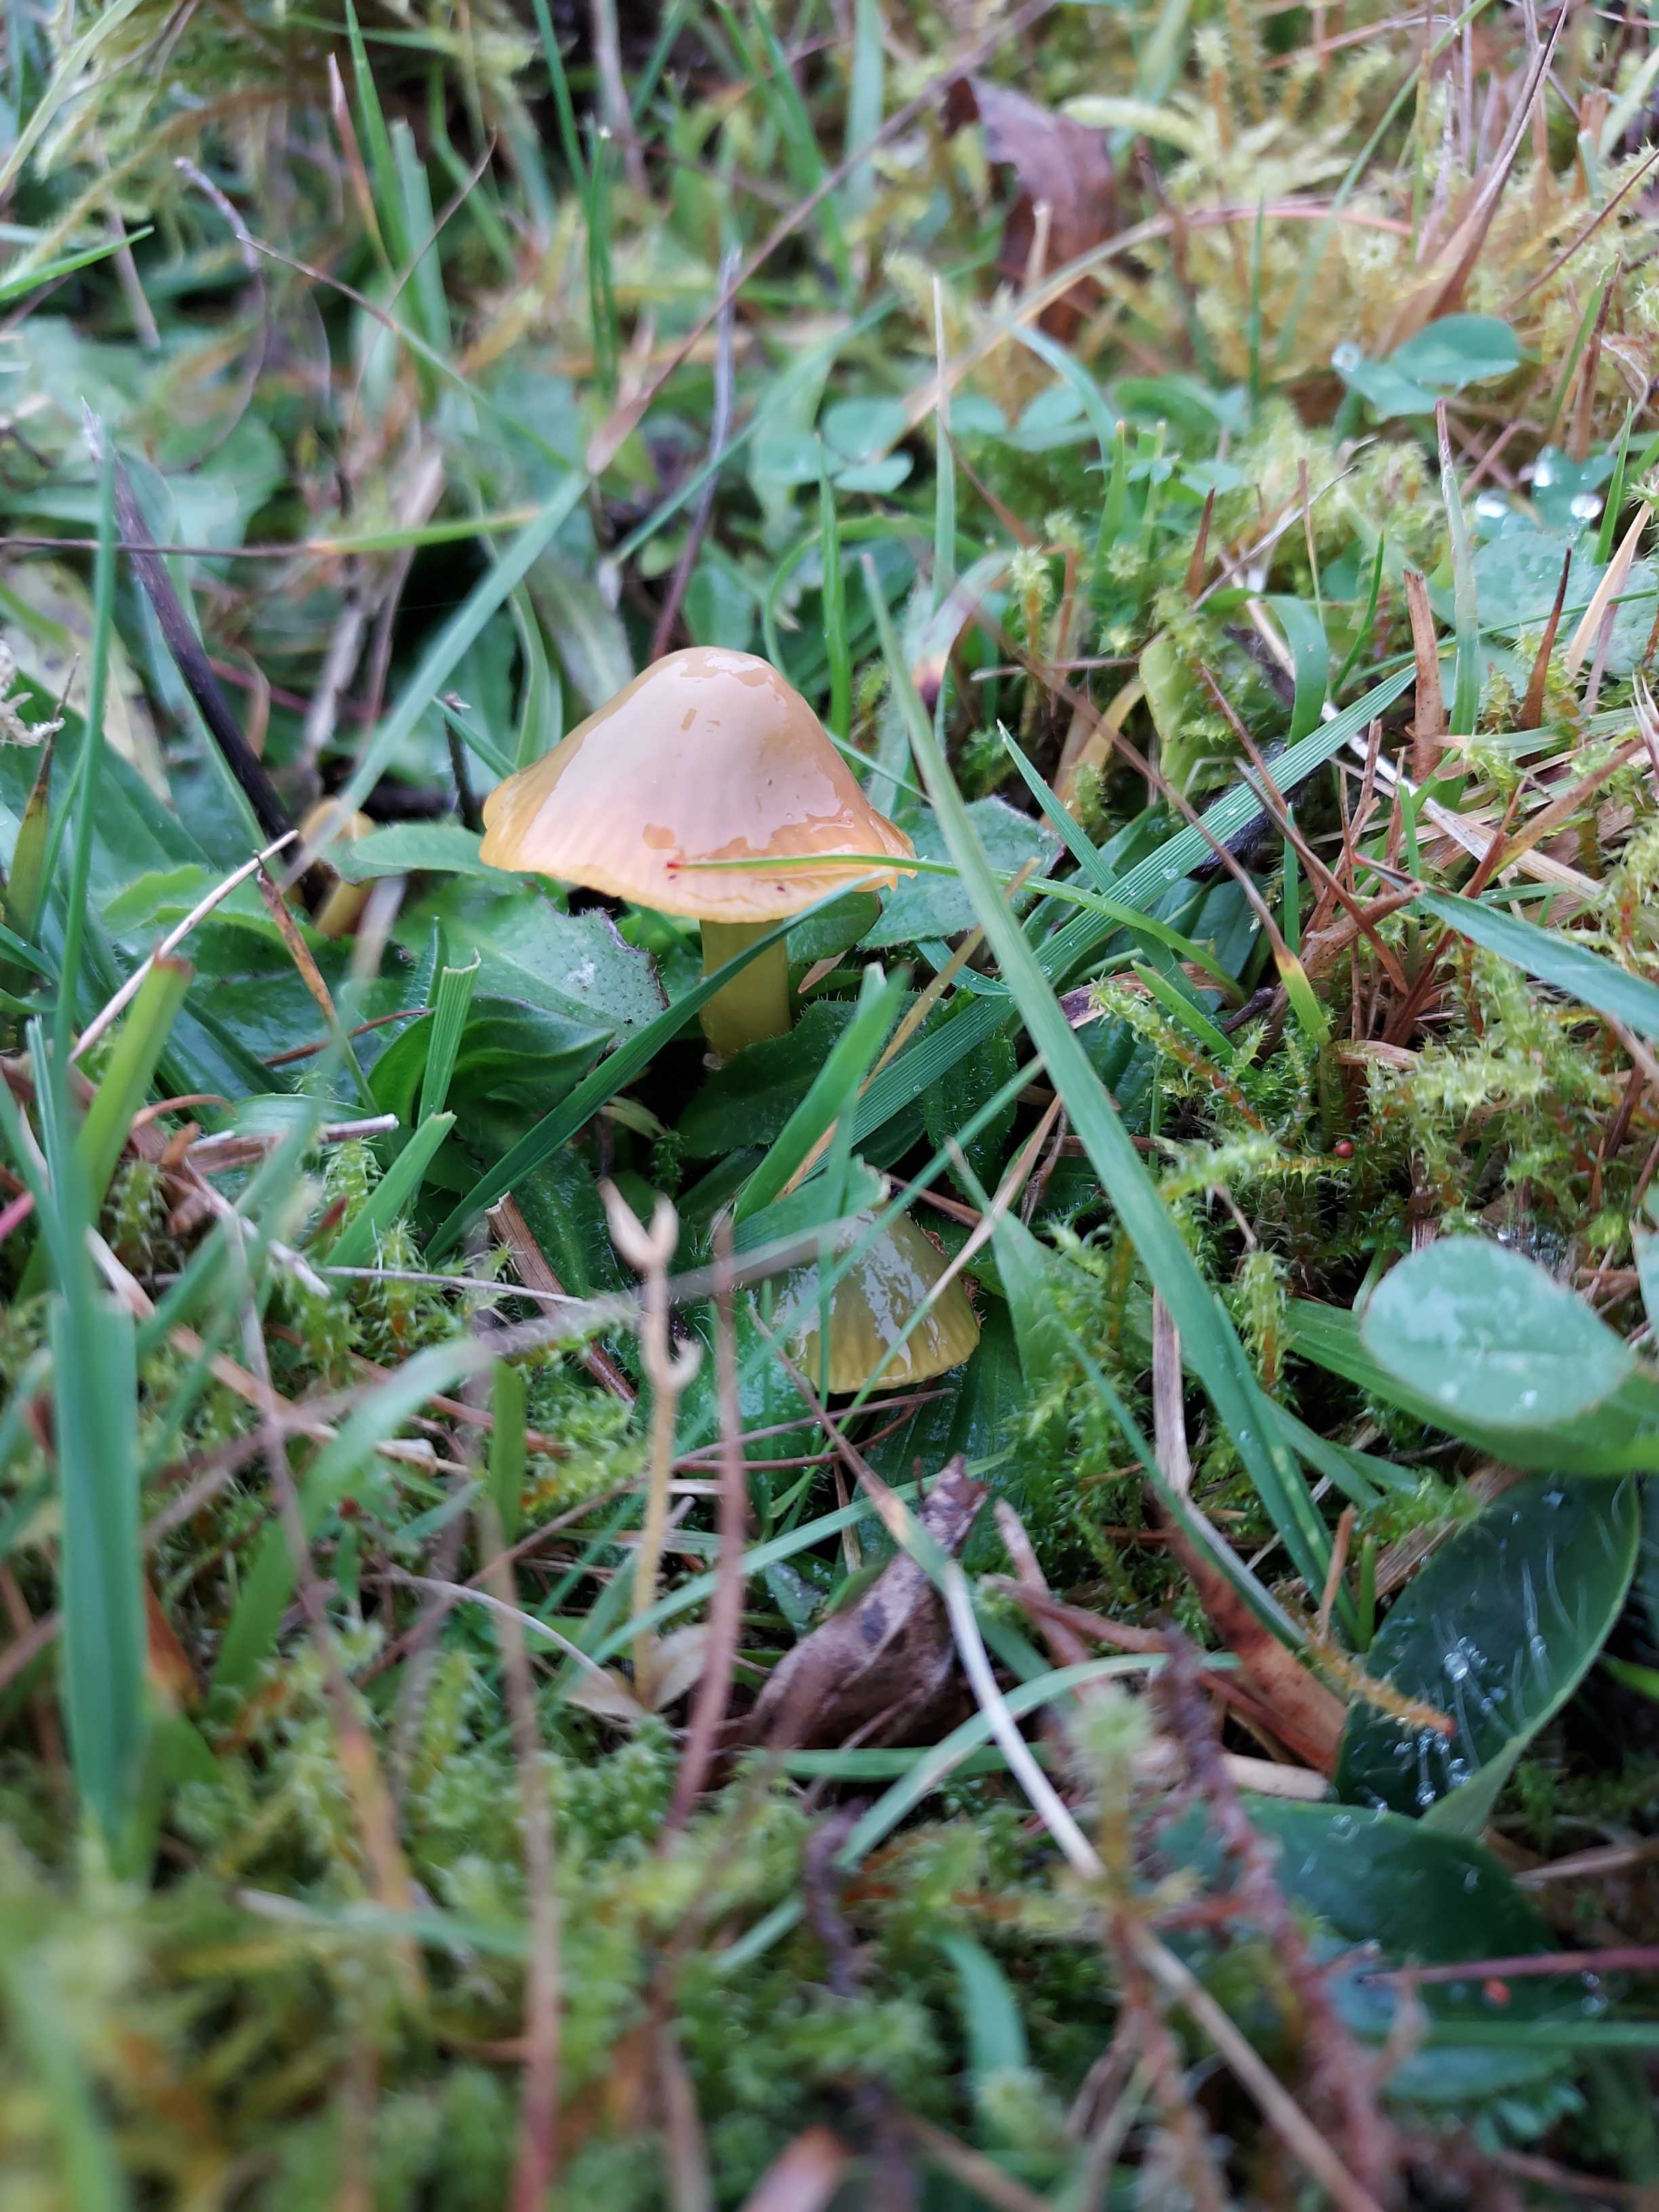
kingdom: Fungi
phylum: Basidiomycota
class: Agaricomycetes
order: Agaricales
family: Hygrophoraceae
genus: Gliophorus
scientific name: Gliophorus psittacinus
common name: papegøje-vokshat
